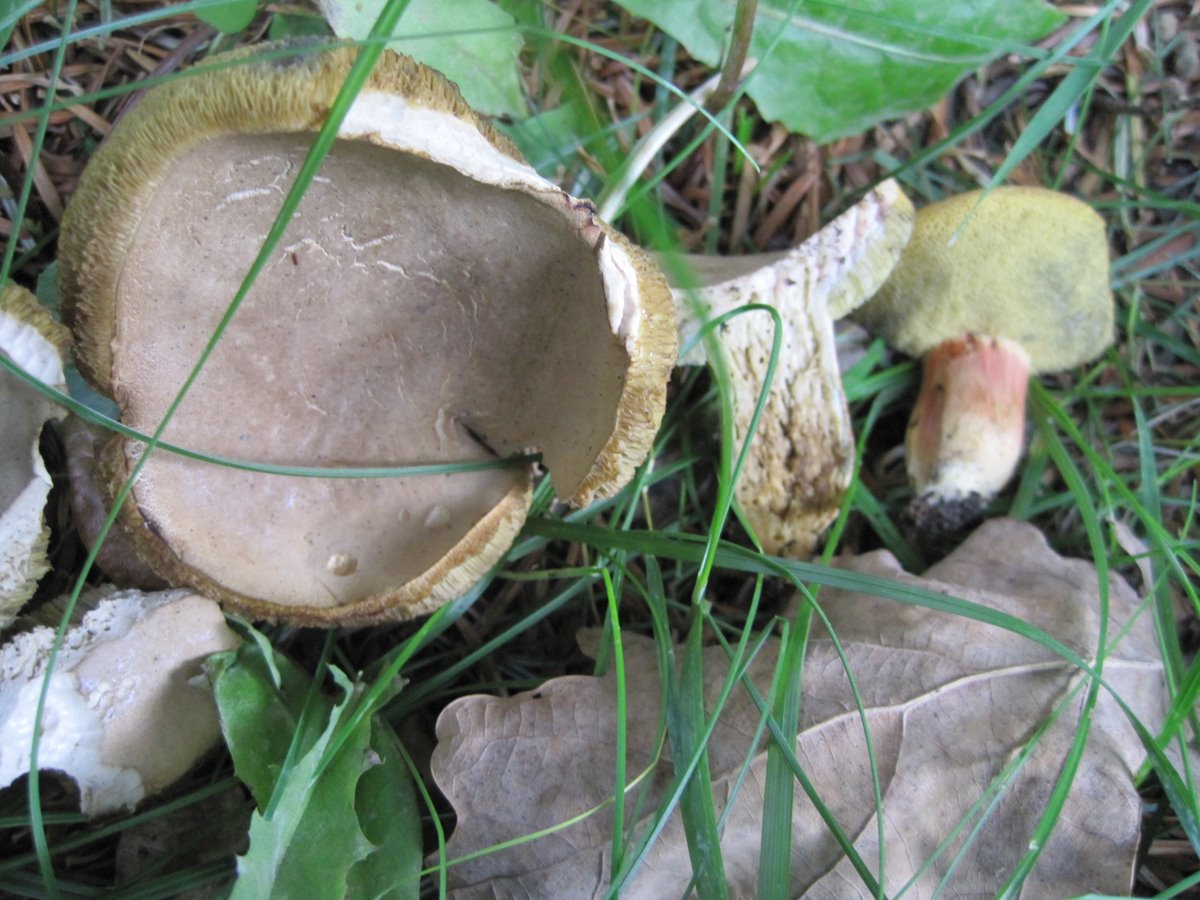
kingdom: Fungi
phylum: Basidiomycota
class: Agaricomycetes
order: Boletales
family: Boletaceae
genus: Hortiboletus
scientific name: Hortiboletus engelii
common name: fersken-rørhat
